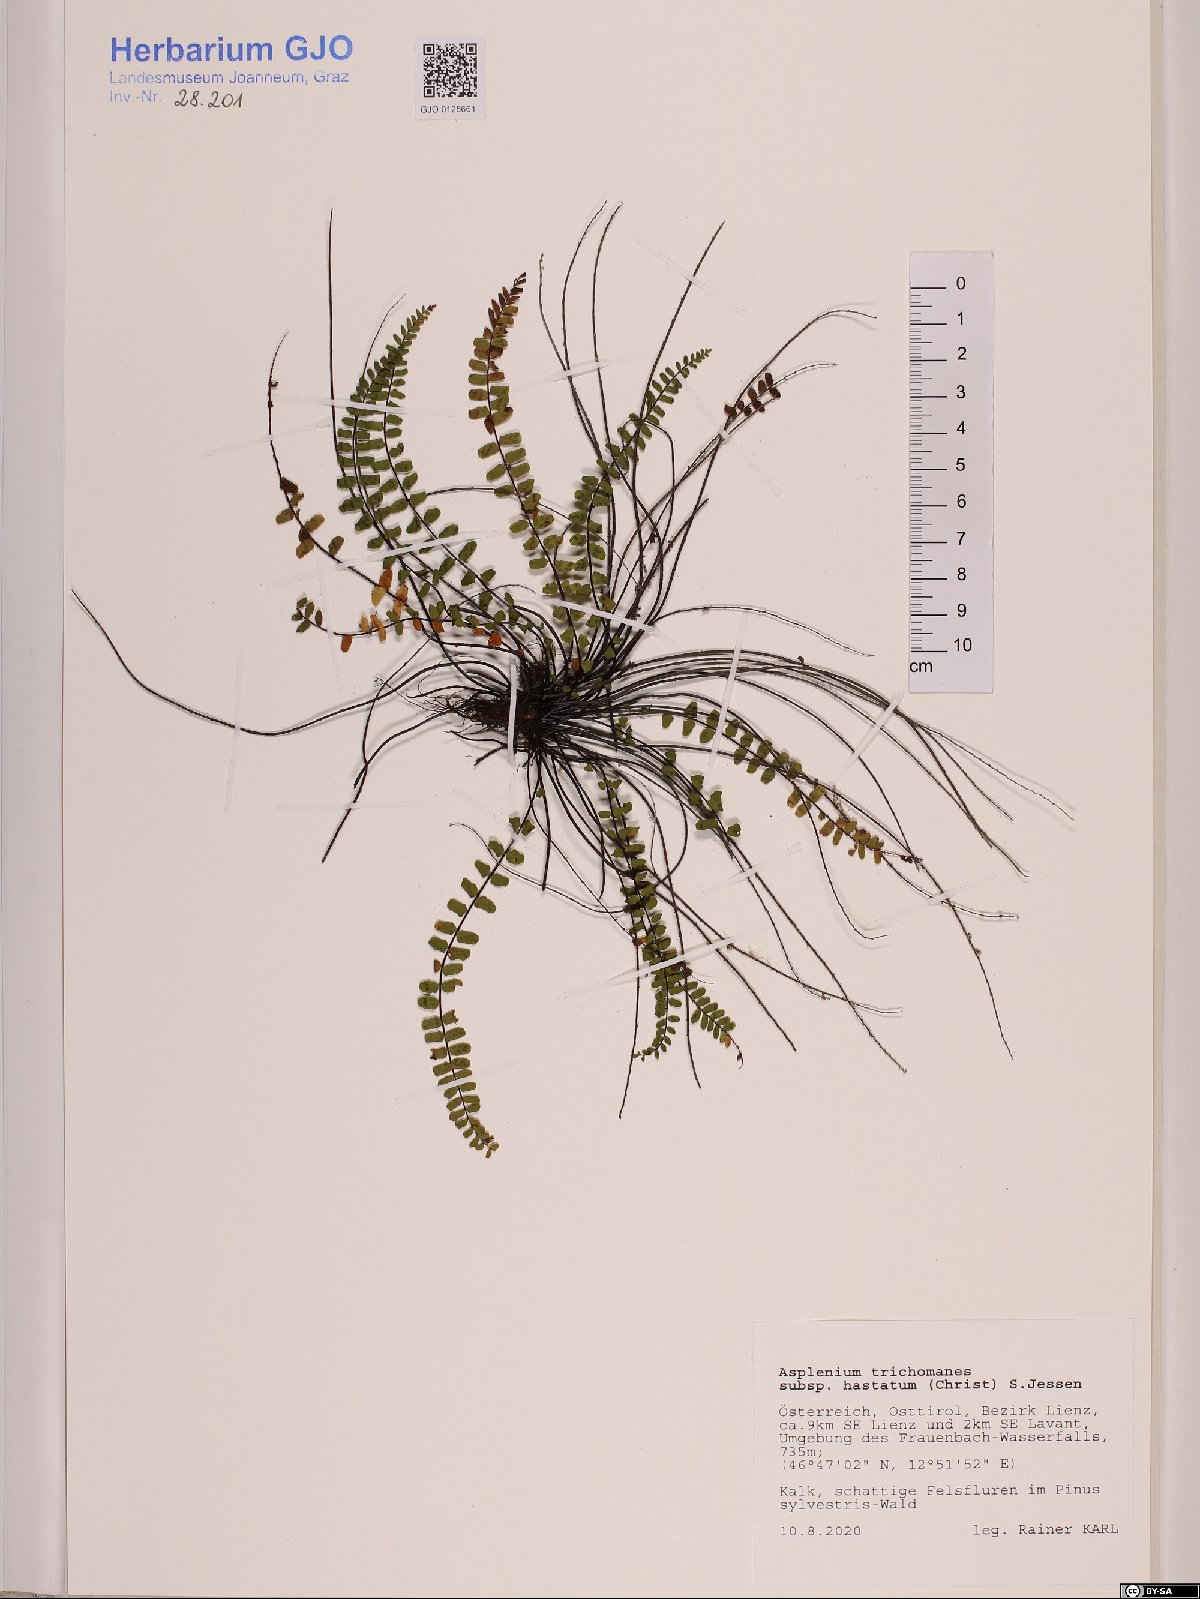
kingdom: Plantae
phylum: Tracheophyta
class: Polypodiopsida
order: Polypodiales
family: Aspleniaceae
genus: Asplenium
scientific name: Asplenium jessenii
